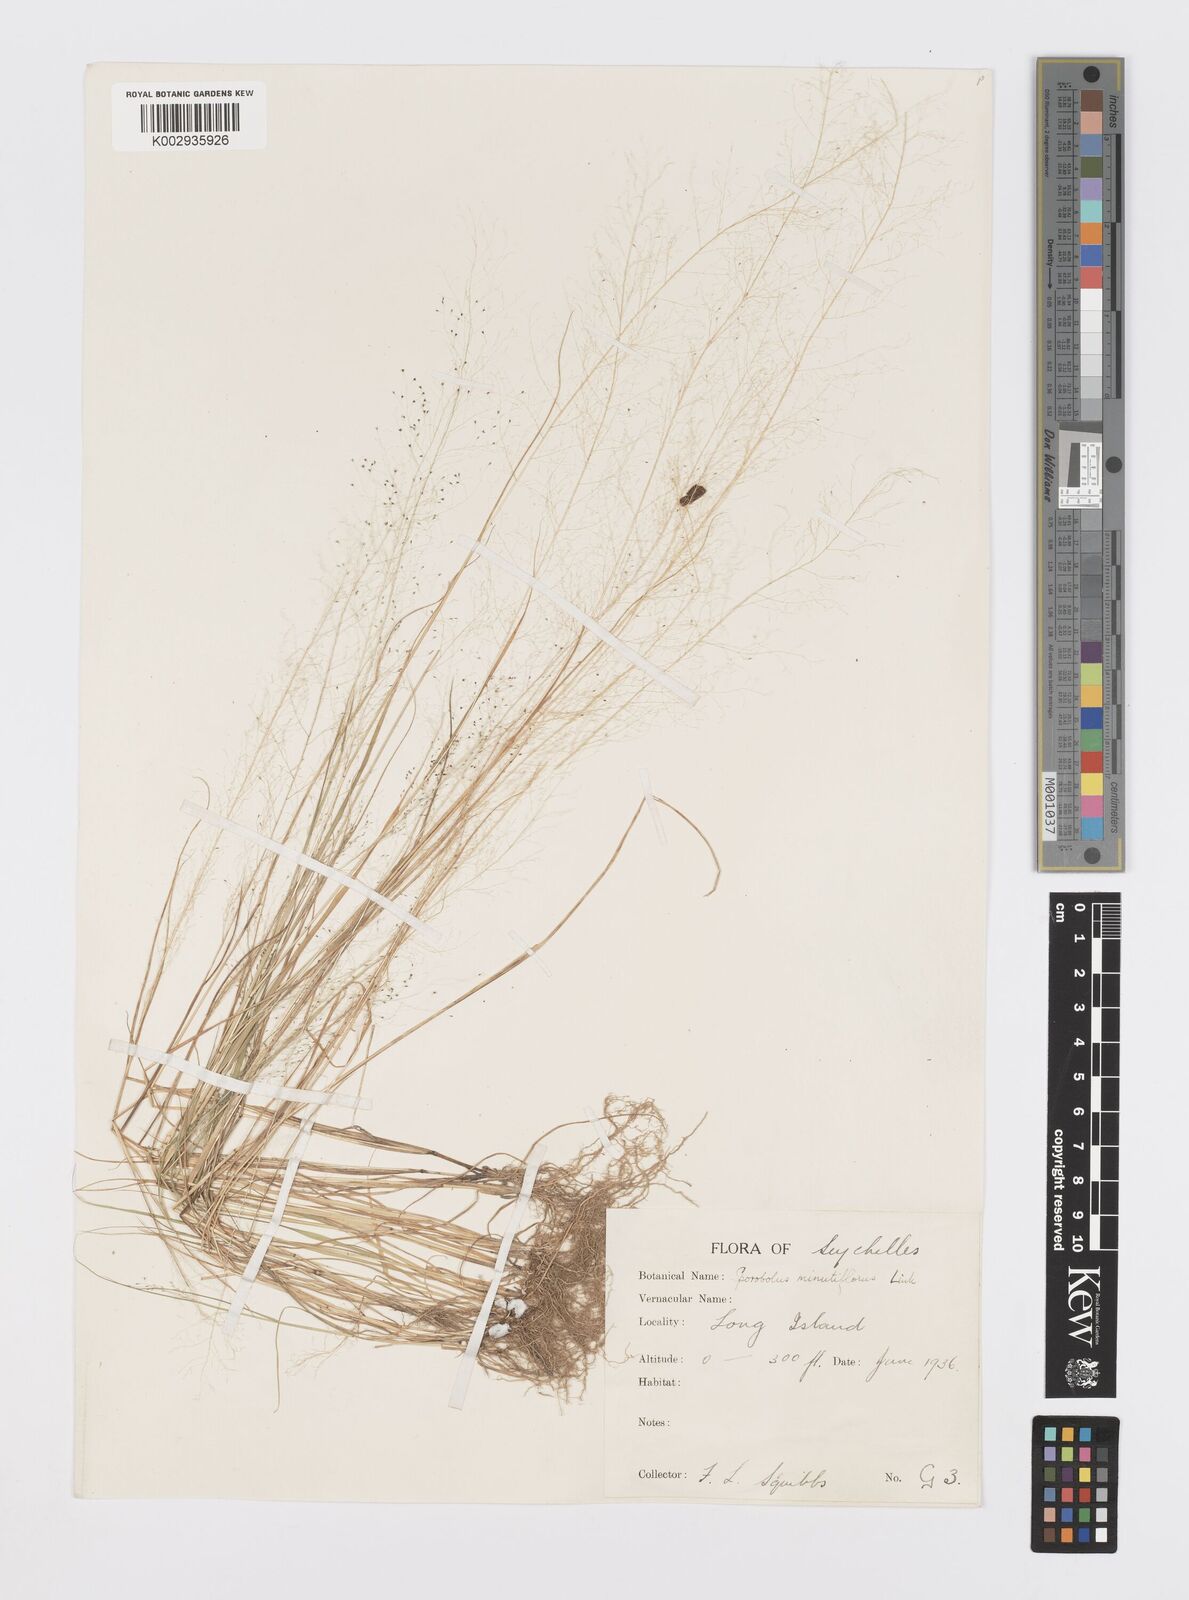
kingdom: Plantae
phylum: Tracheophyta
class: Liliopsida
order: Poales
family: Poaceae
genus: Sporobolus
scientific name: Sporobolus tenuissimus
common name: Tropical dropseed
